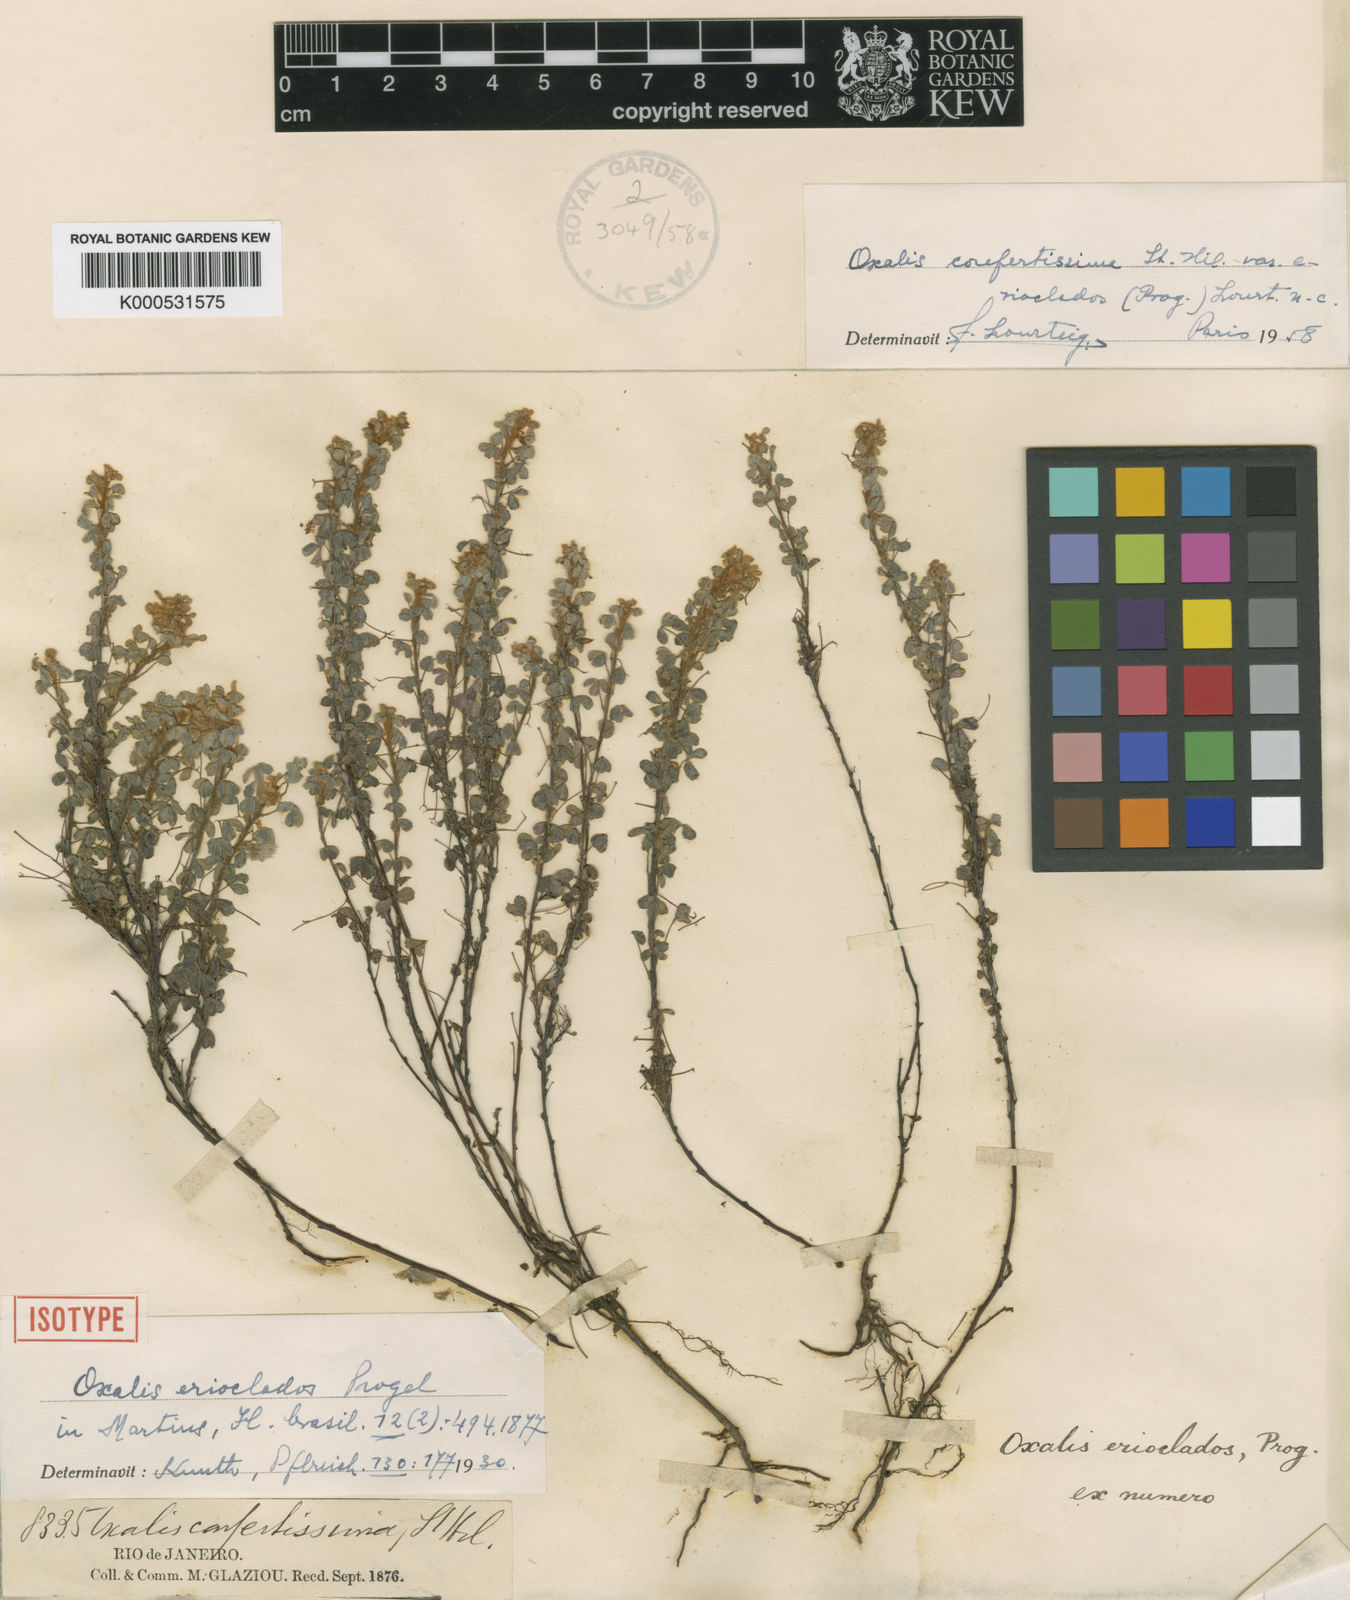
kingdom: Plantae
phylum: Tracheophyta
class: Magnoliopsida
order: Oxalidales
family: Oxalidaceae
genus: Oxalis
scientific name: Oxalis confertissima
